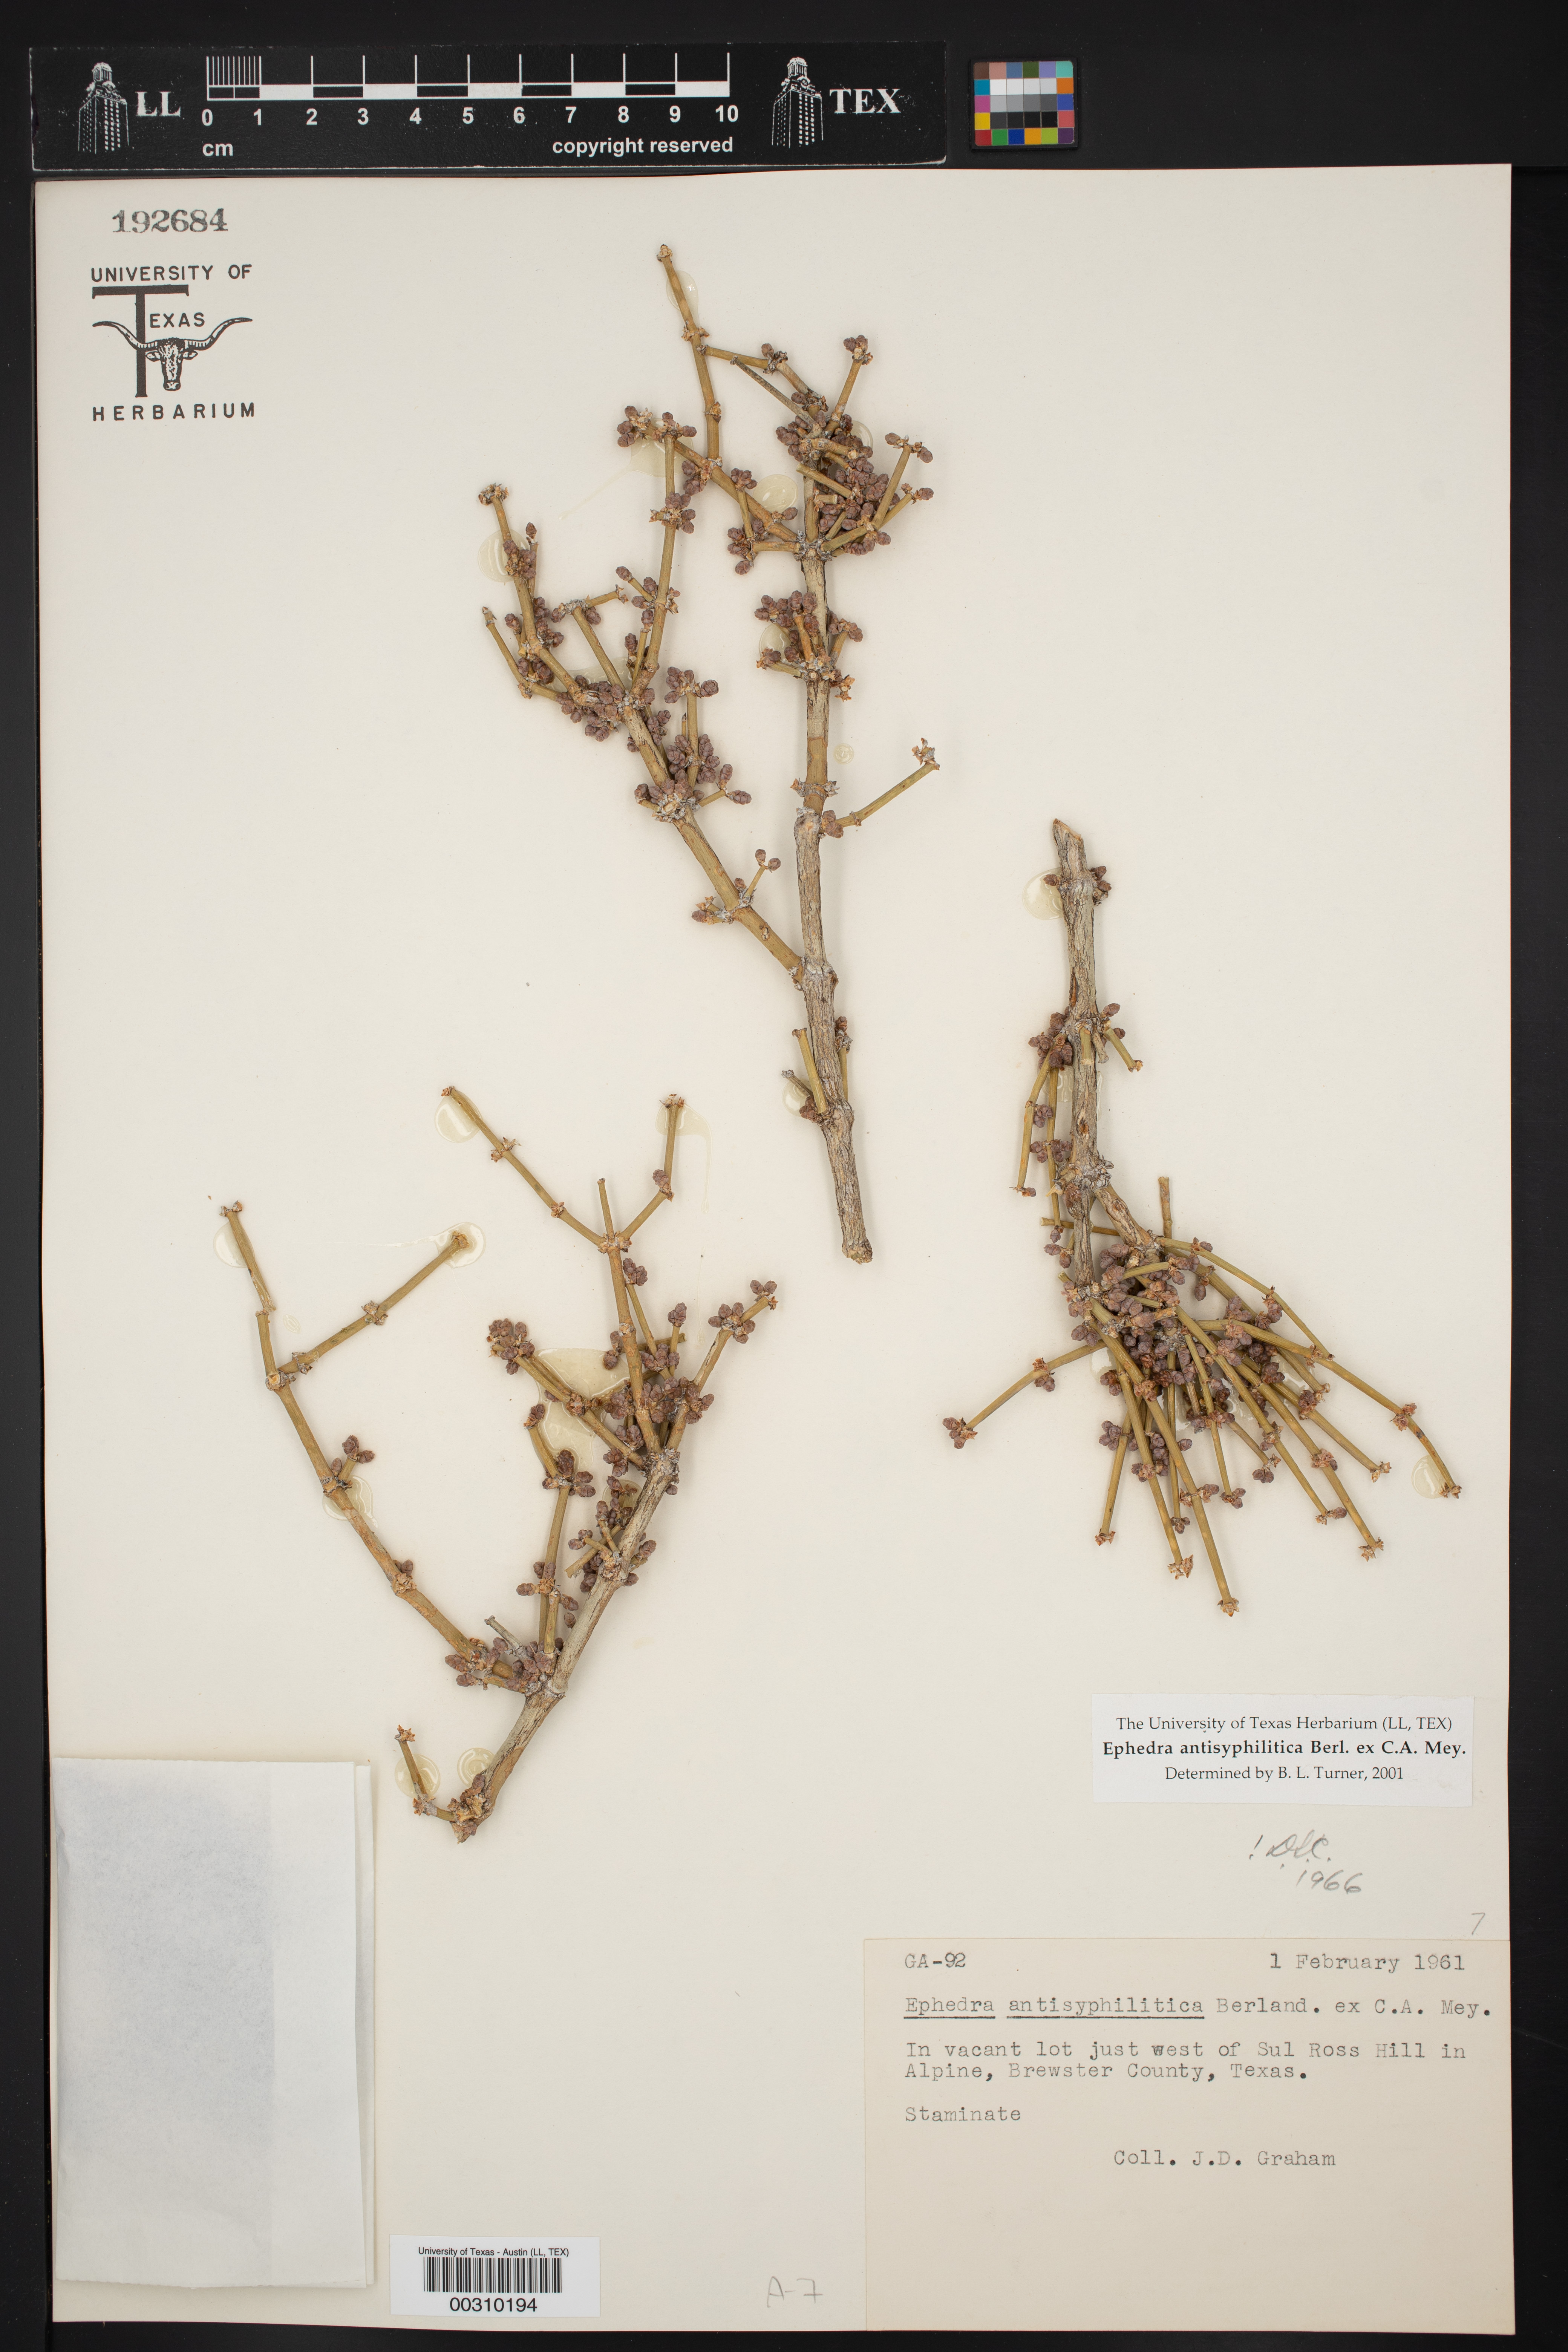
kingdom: Plantae
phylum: Tracheophyta
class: Gnetopsida
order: Ephedrales
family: Ephedraceae
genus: Ephedra
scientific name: Ephedra antisyphilitica
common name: Clipweed
